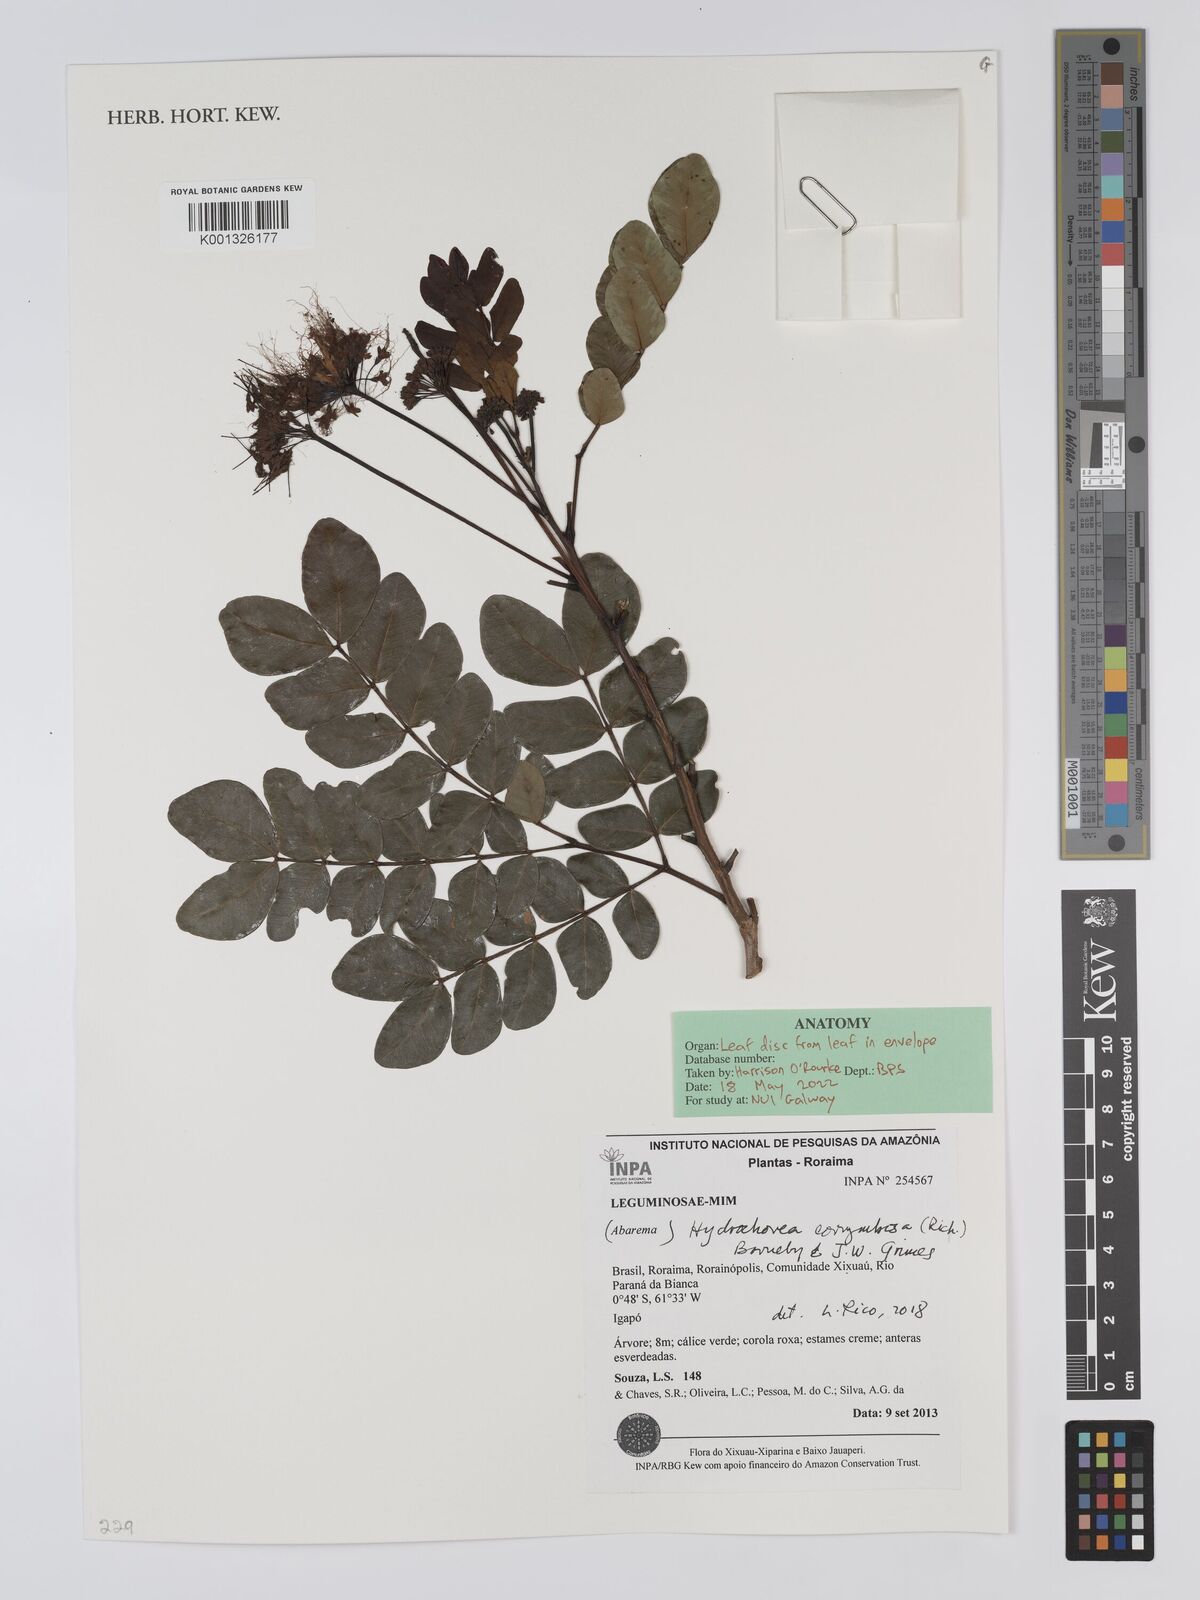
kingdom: Plantae
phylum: Tracheophyta
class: Magnoliopsida
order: Fabales
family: Fabaceae
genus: Hydrochorea
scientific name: Hydrochorea corymbosa
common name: Swamp manariballi
